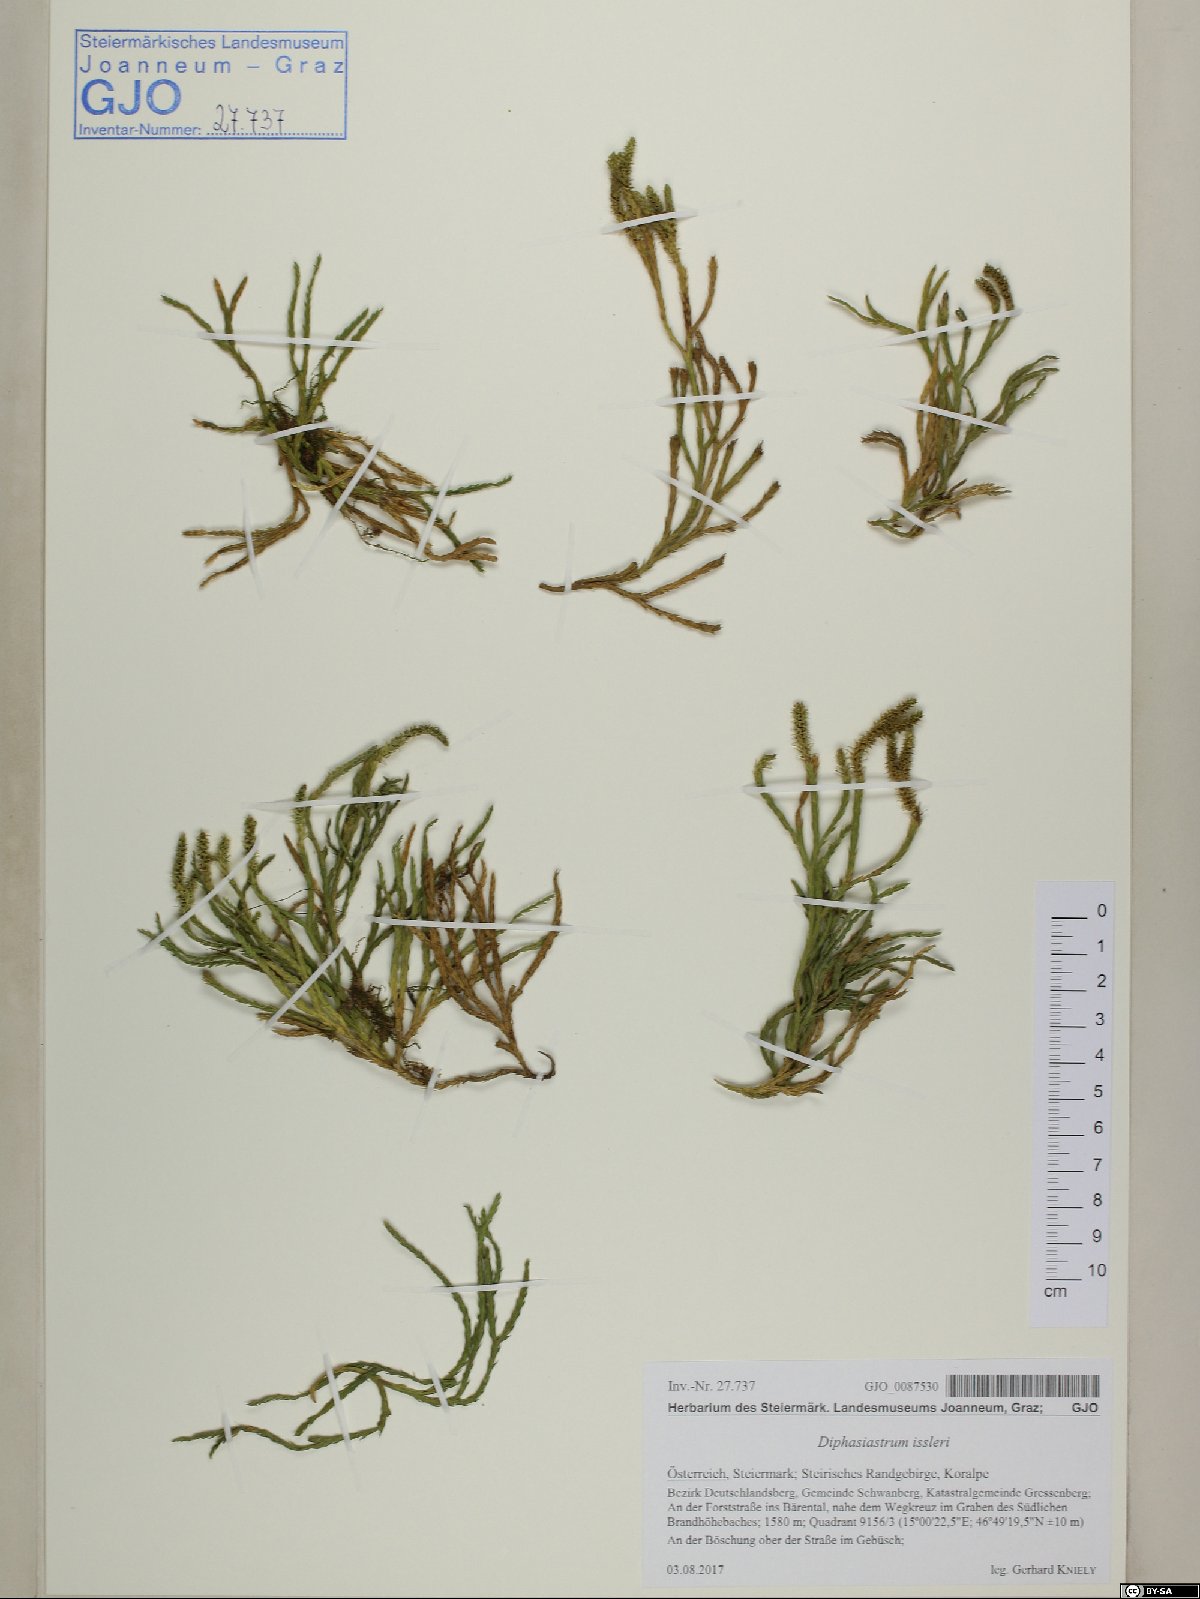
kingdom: Plantae
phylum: Tracheophyta
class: Lycopodiopsida
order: Lycopodiales
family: Lycopodiaceae
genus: Diphasiastrum
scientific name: Diphasiastrum issleri
